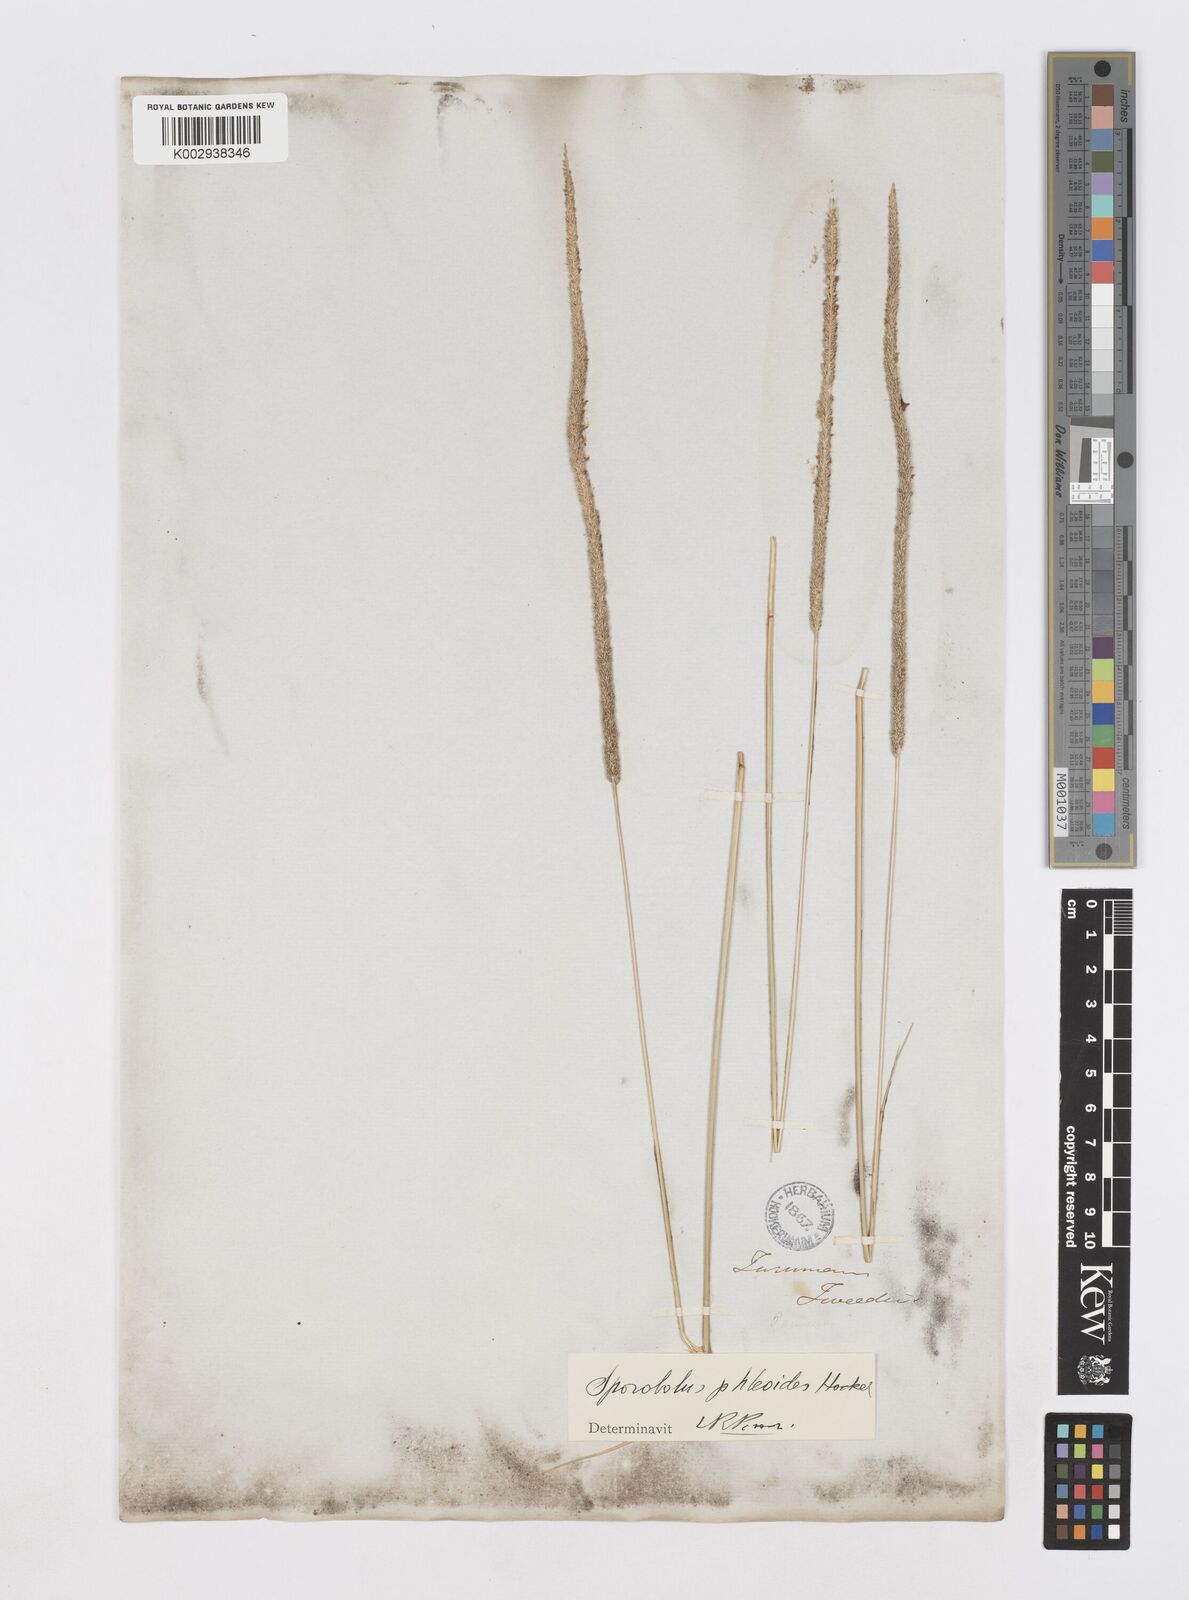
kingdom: Plantae
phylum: Tracheophyta
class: Liliopsida
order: Poales
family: Poaceae
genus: Sporobolus
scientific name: Sporobolus phleoides
